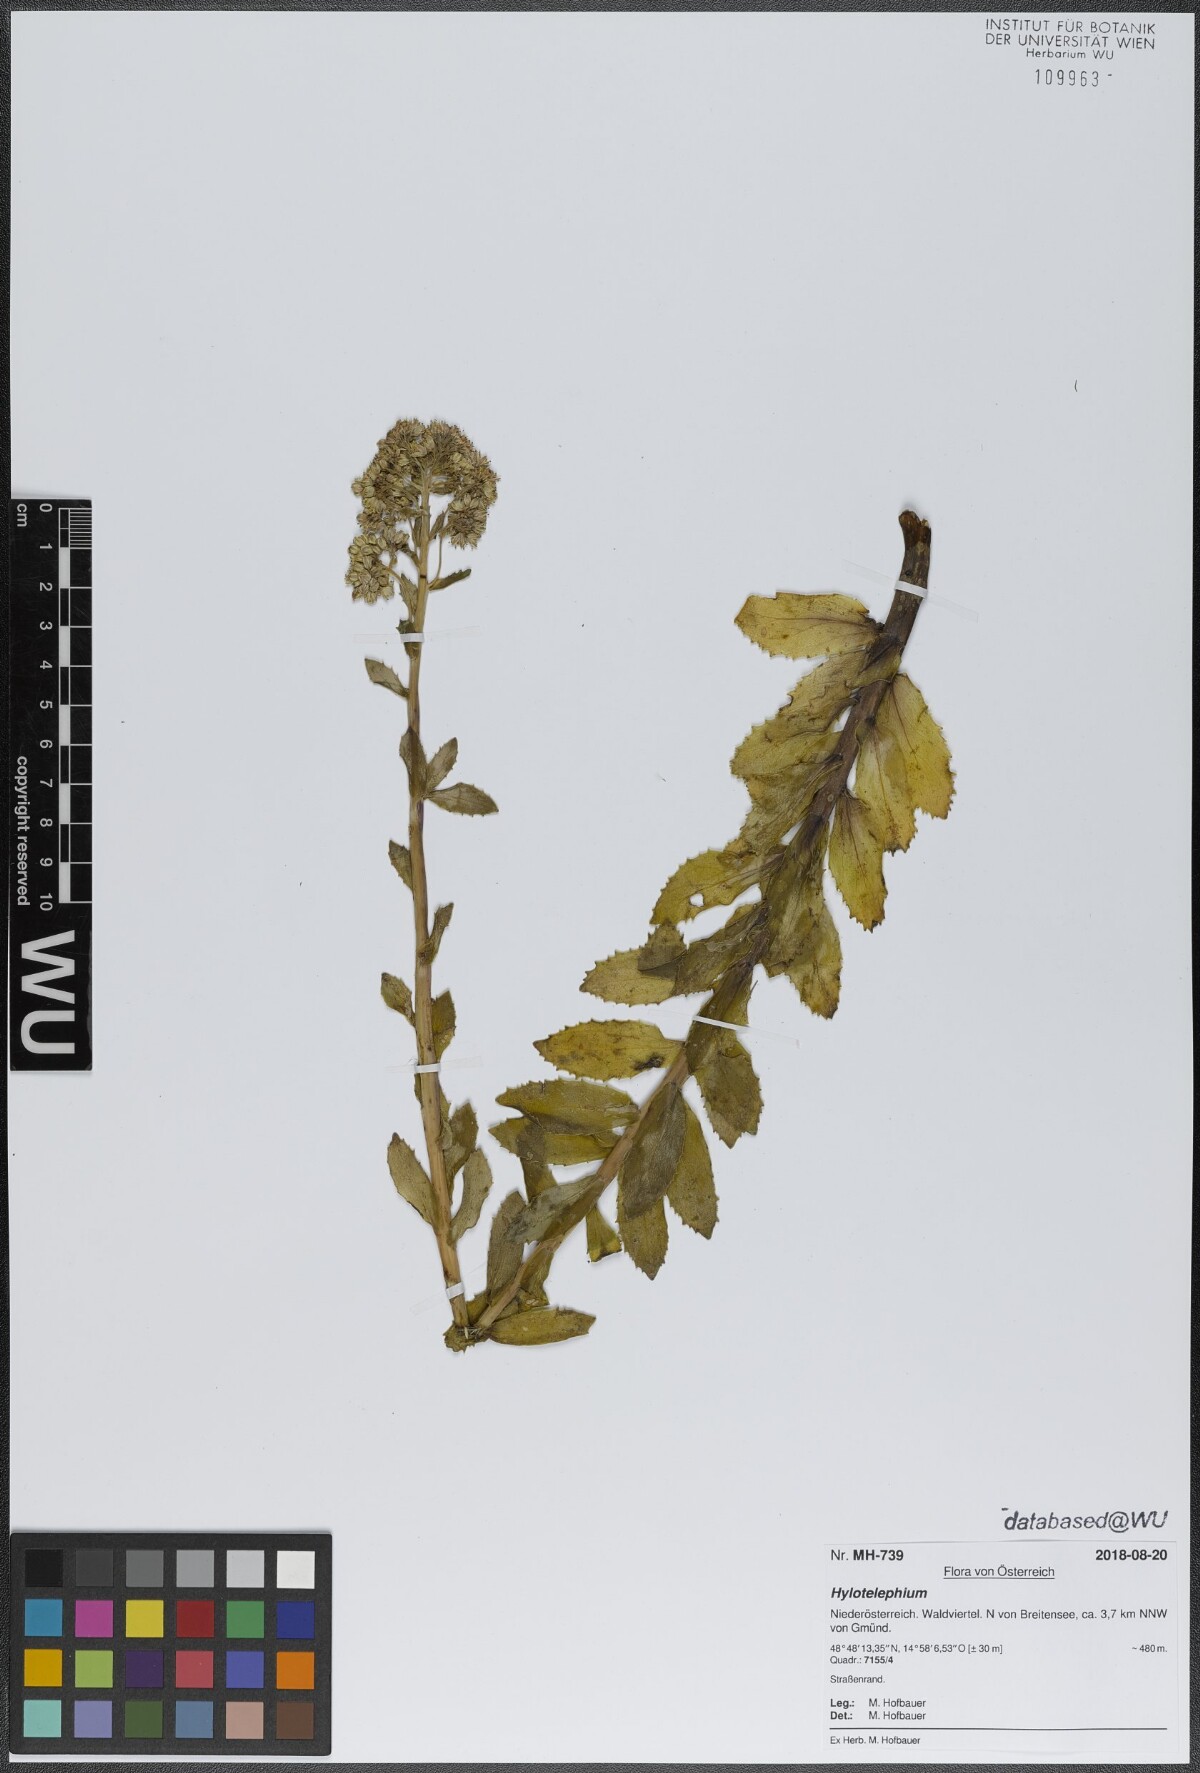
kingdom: Plantae
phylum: Tracheophyta
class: Magnoliopsida
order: Saxifragales
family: Crassulaceae
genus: Hylotelephium
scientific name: Hylotelephium
